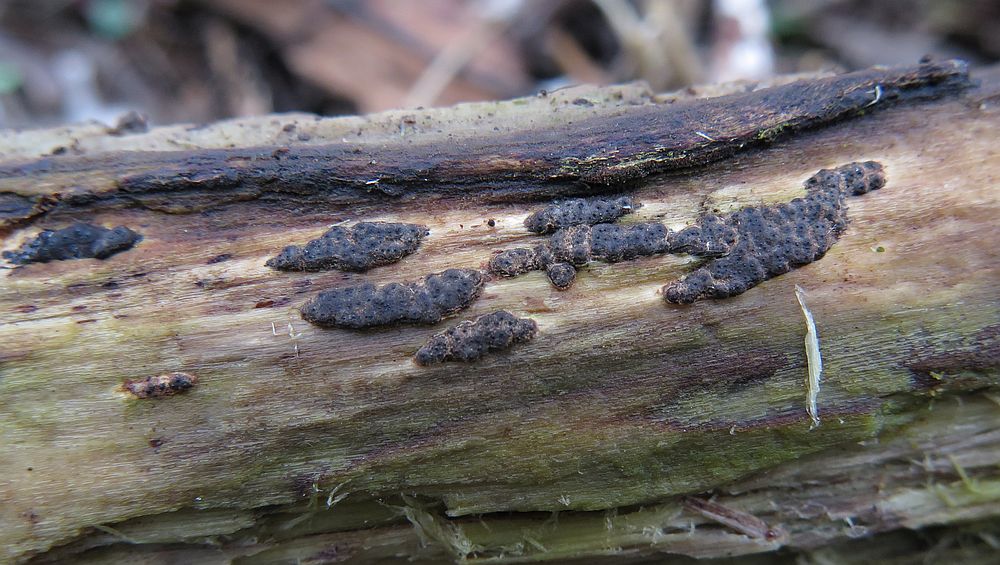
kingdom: Fungi
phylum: Ascomycota
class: Sordariomycetes
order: Xylariales
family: Xylariaceae
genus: Nemania
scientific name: Nemania serpens
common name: almindelig kuldyne
